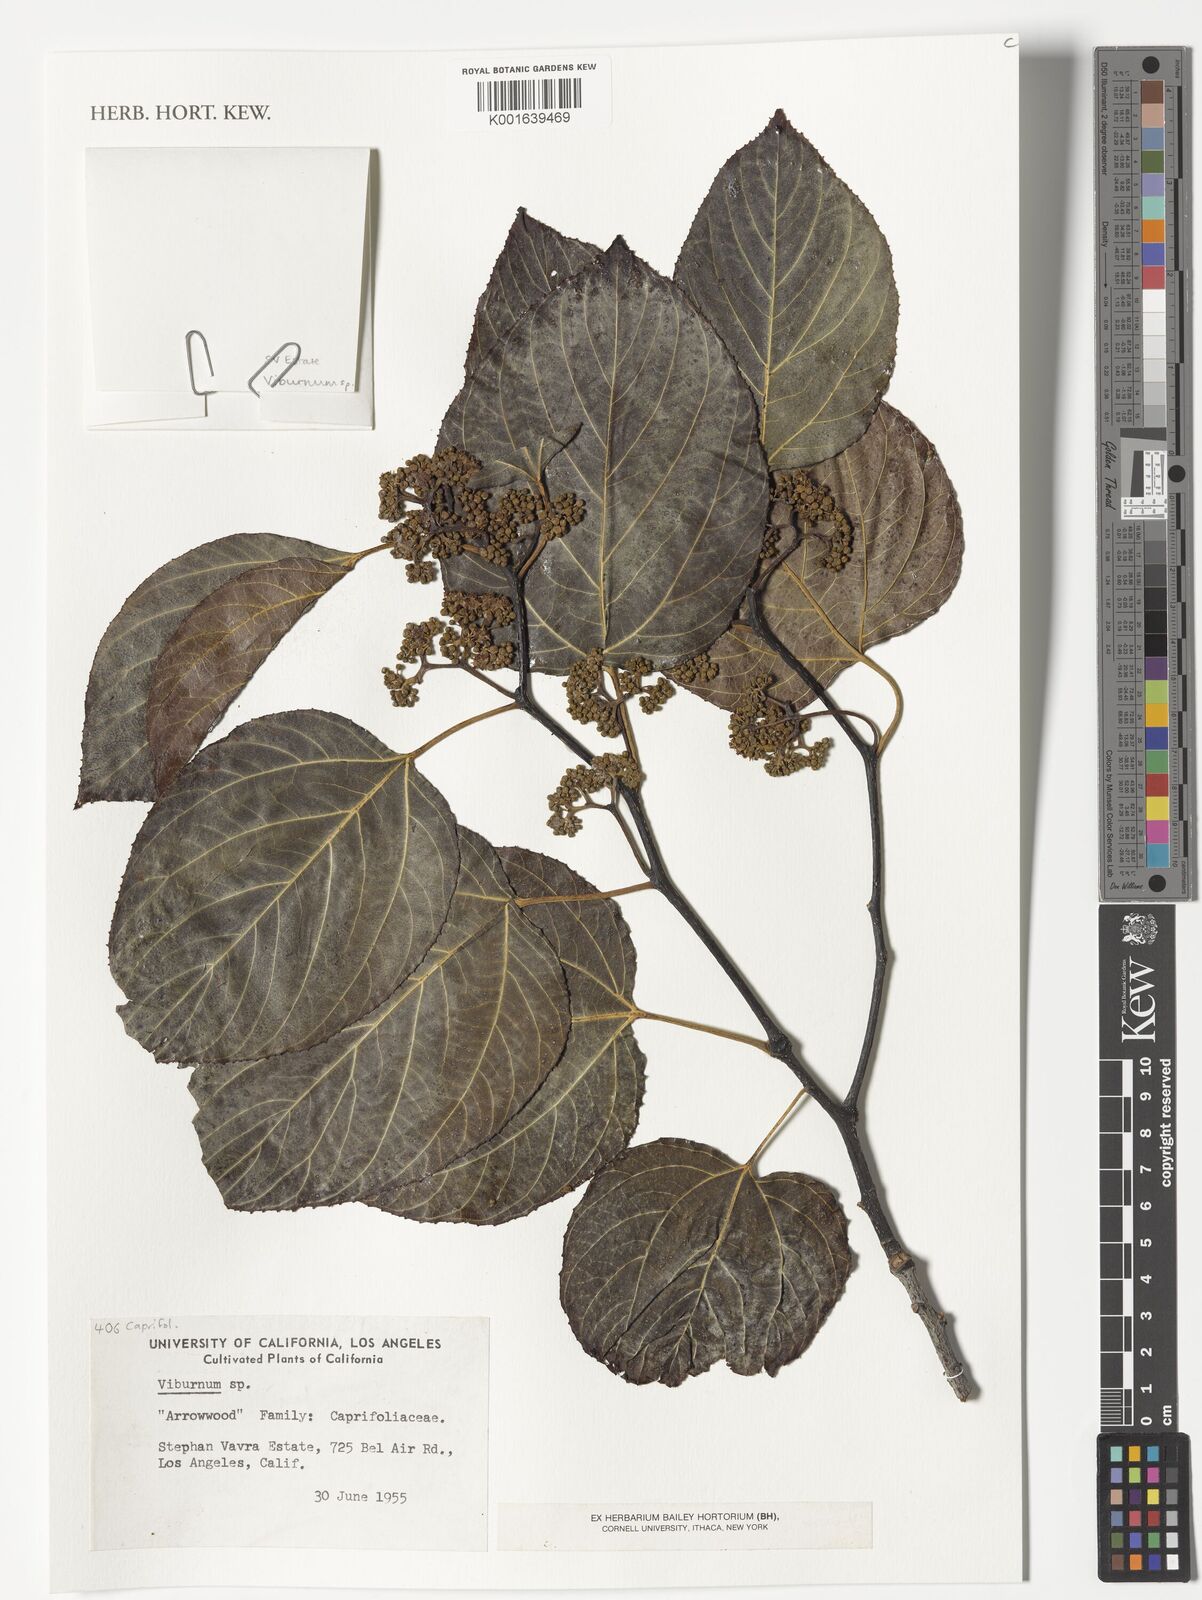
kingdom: Plantae
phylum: Tracheophyta
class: Magnoliopsida
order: Dipsacales
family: Viburnaceae
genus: Viburnum
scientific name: Viburnum
